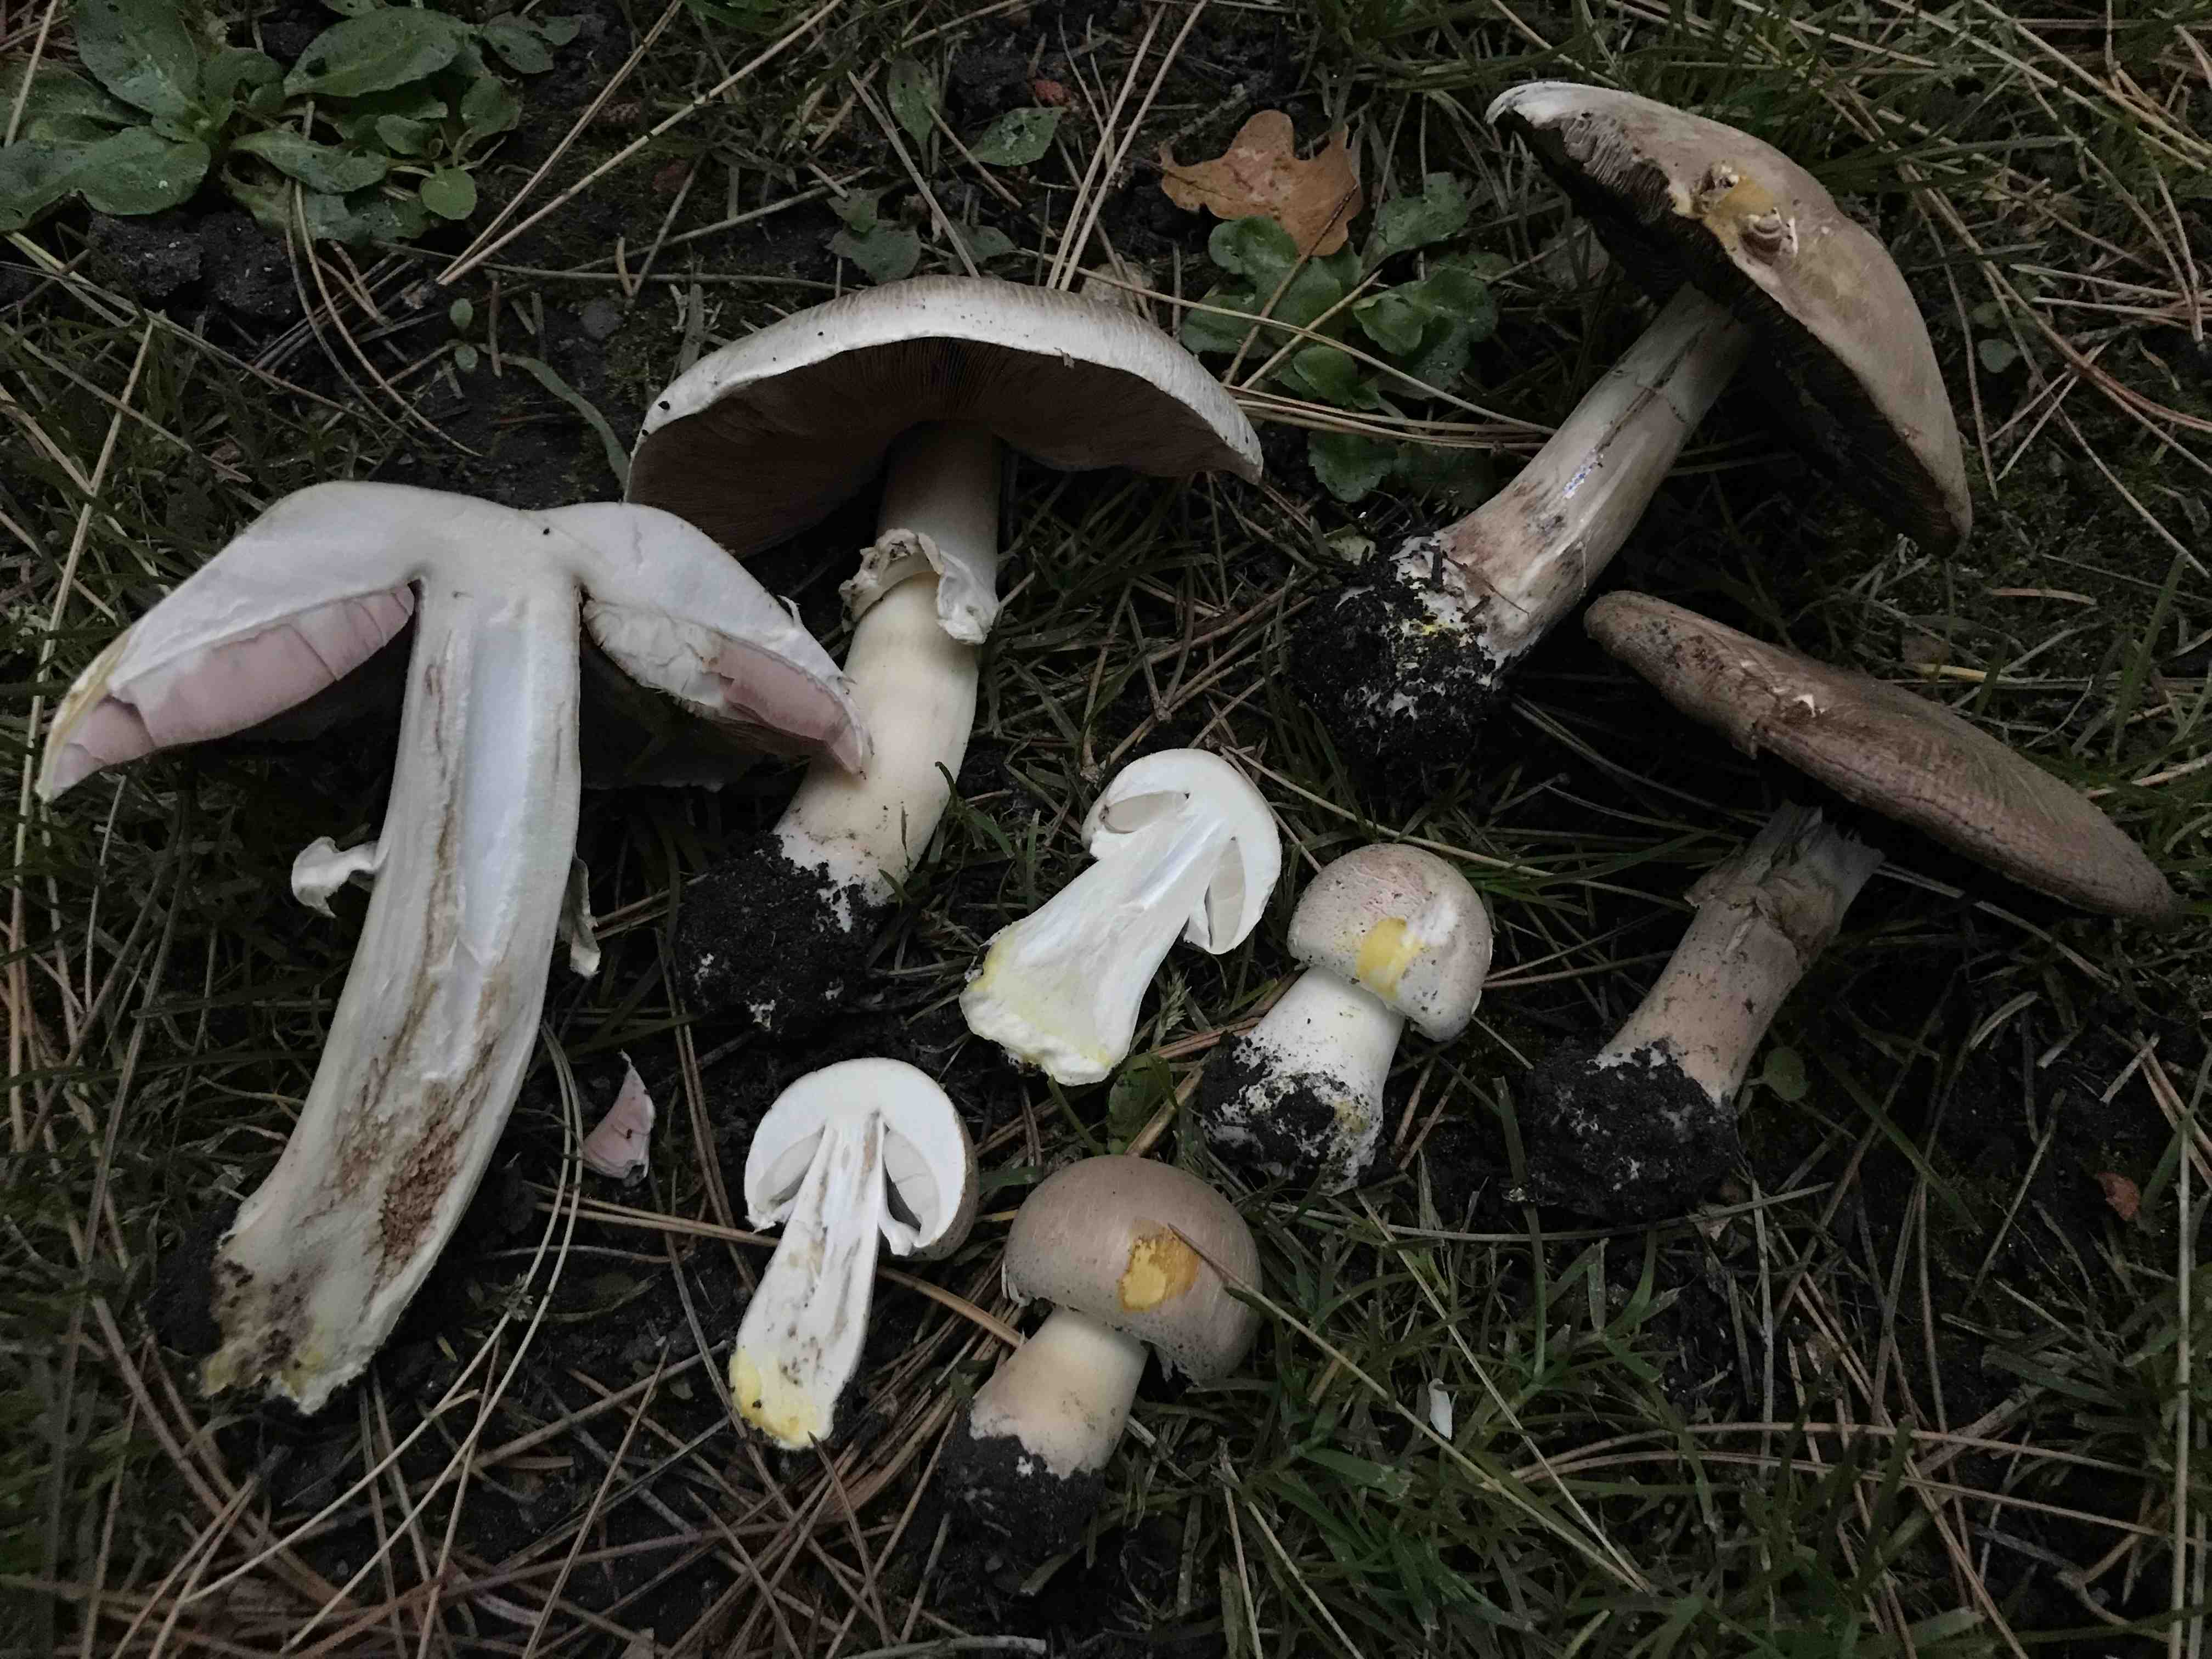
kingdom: Fungi
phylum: Basidiomycota
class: Agaricomycetes
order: Agaricales
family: Agaricaceae
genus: Agaricus
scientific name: Agaricus xanthodermus
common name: karbol-champignon
